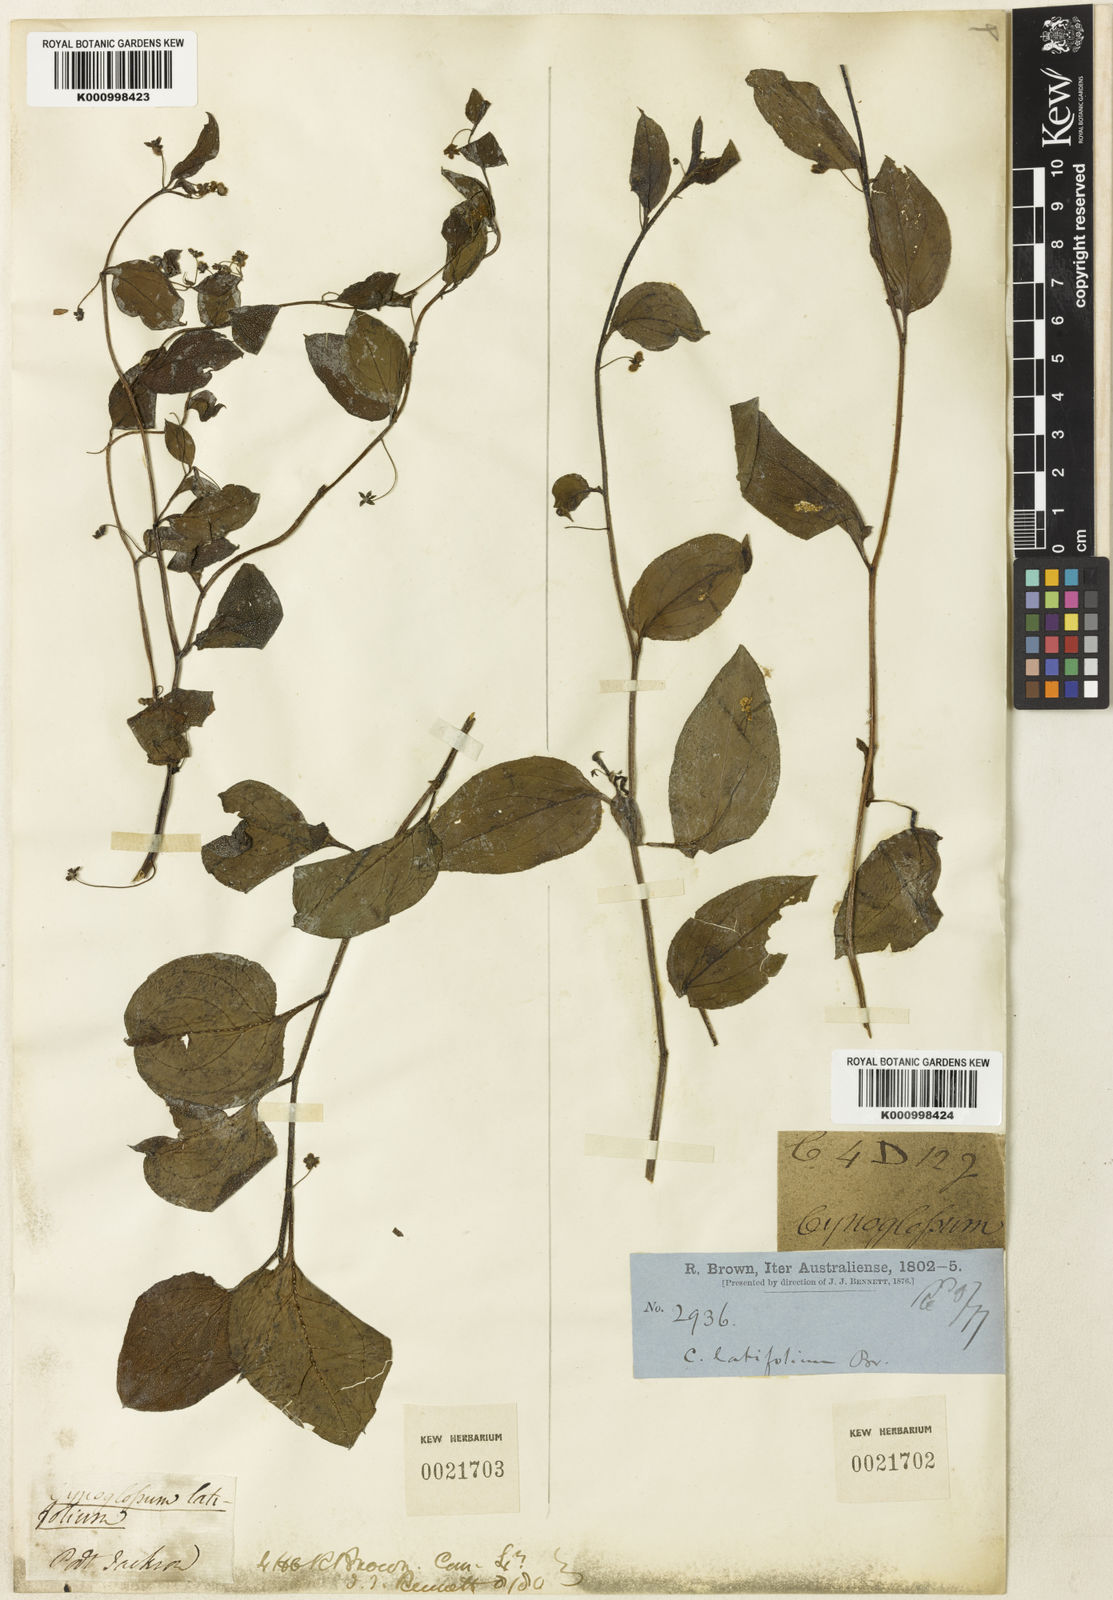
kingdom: Plantae
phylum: Tracheophyta
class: Magnoliopsida
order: Boraginales
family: Boraginaceae
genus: Hackelia
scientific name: Hackelia latifolia
